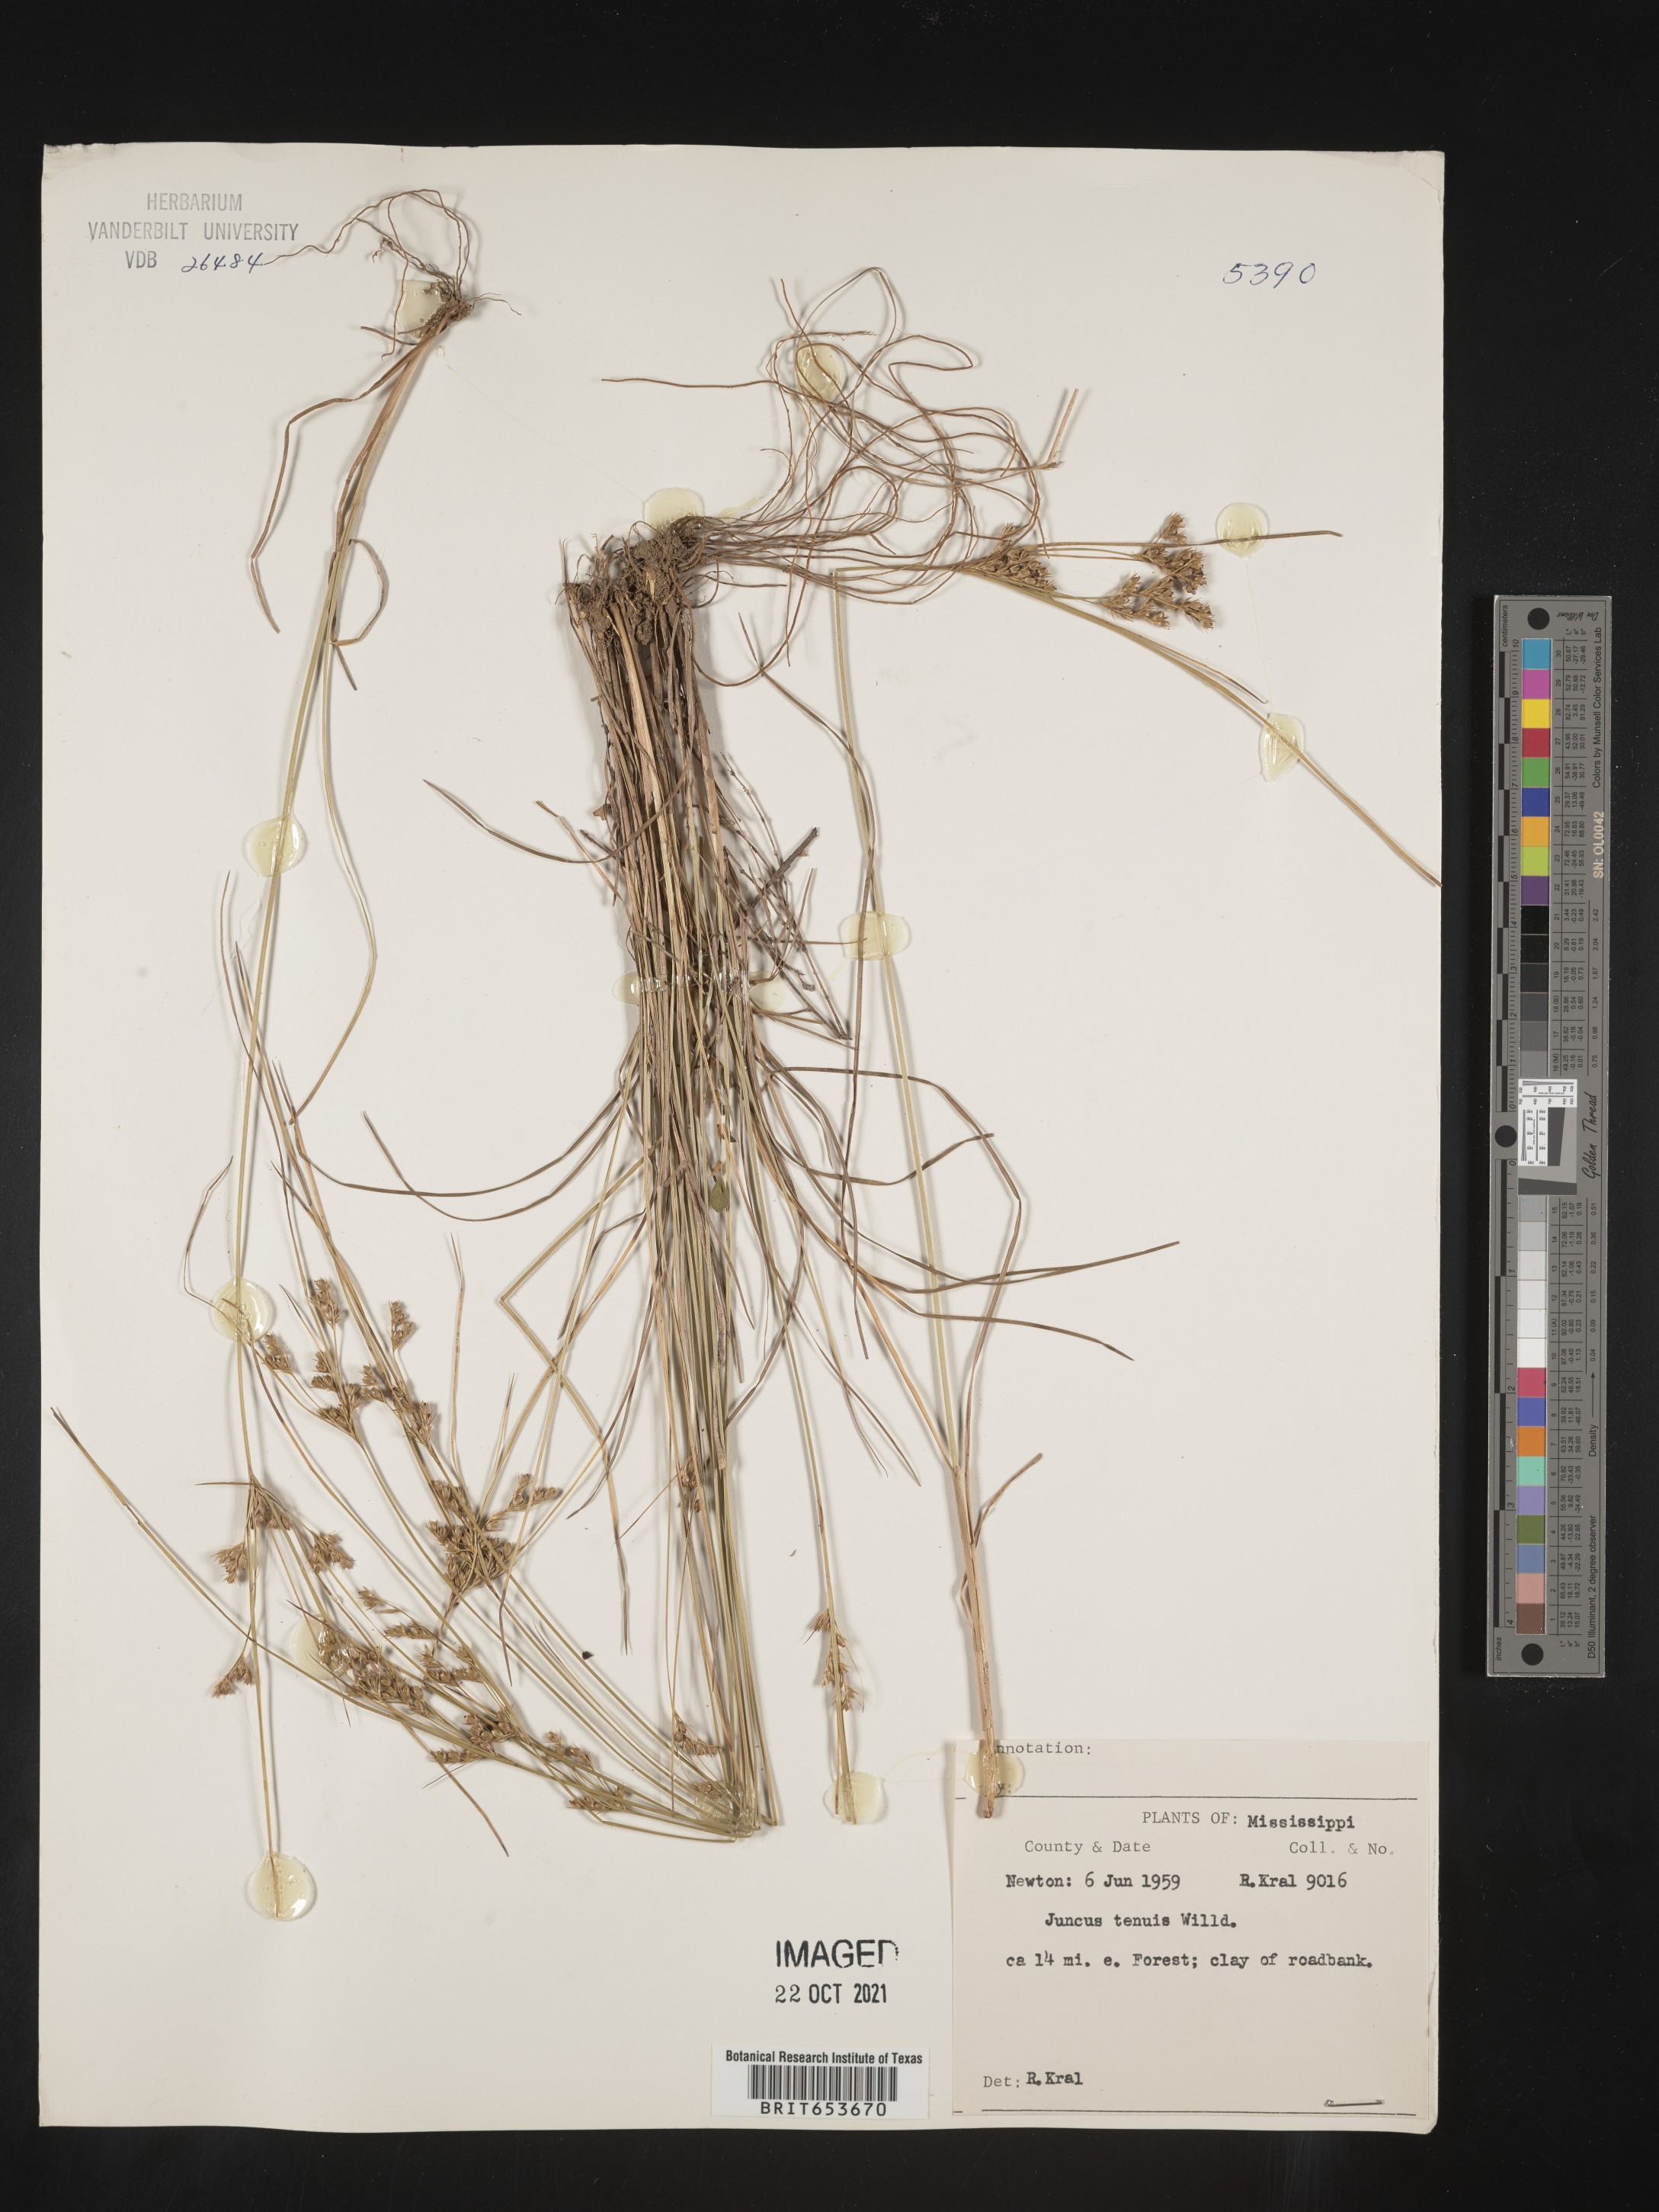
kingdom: Plantae
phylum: Tracheophyta
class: Liliopsida
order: Poales
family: Juncaceae
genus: Juncus
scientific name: Juncus tenuis
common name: Slender rush
